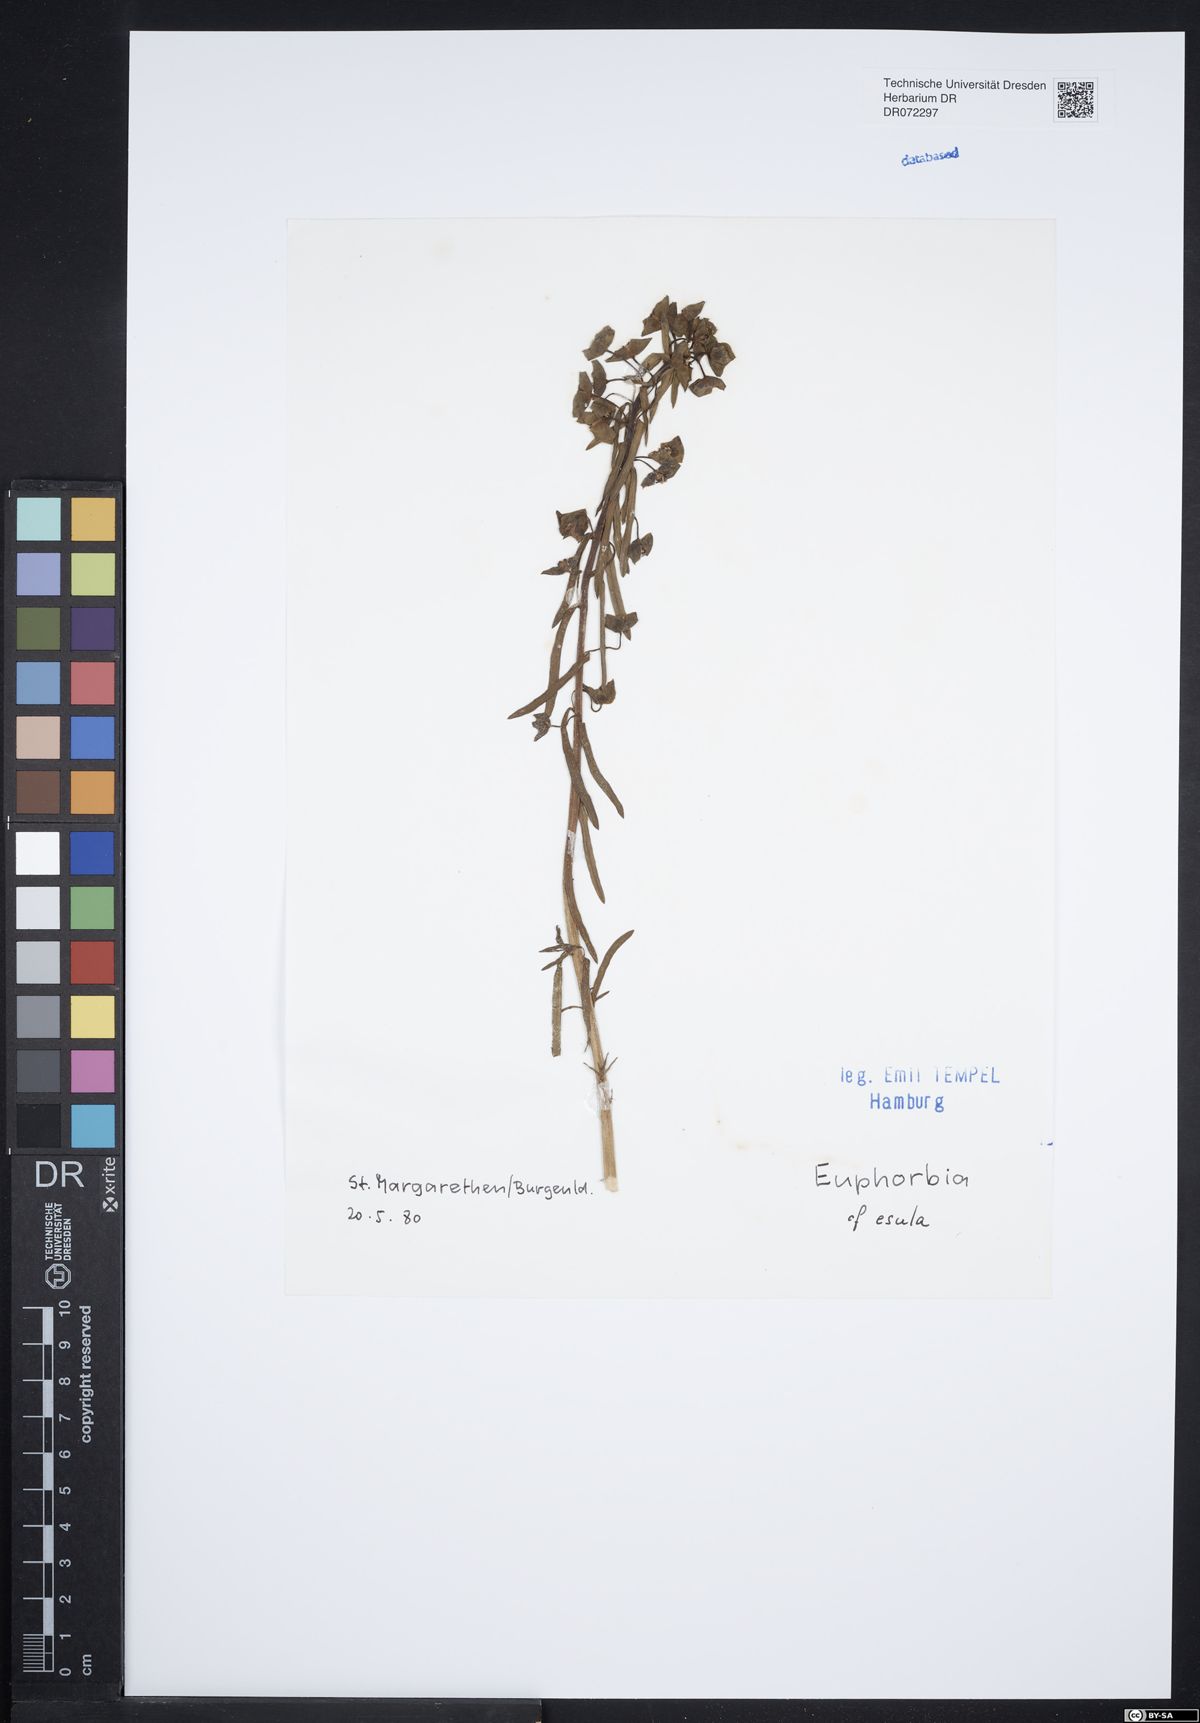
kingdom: Plantae
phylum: Tracheophyta
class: Magnoliopsida
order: Malpighiales
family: Euphorbiaceae
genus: Euphorbia
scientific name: Euphorbia esula
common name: Leafy spurge
